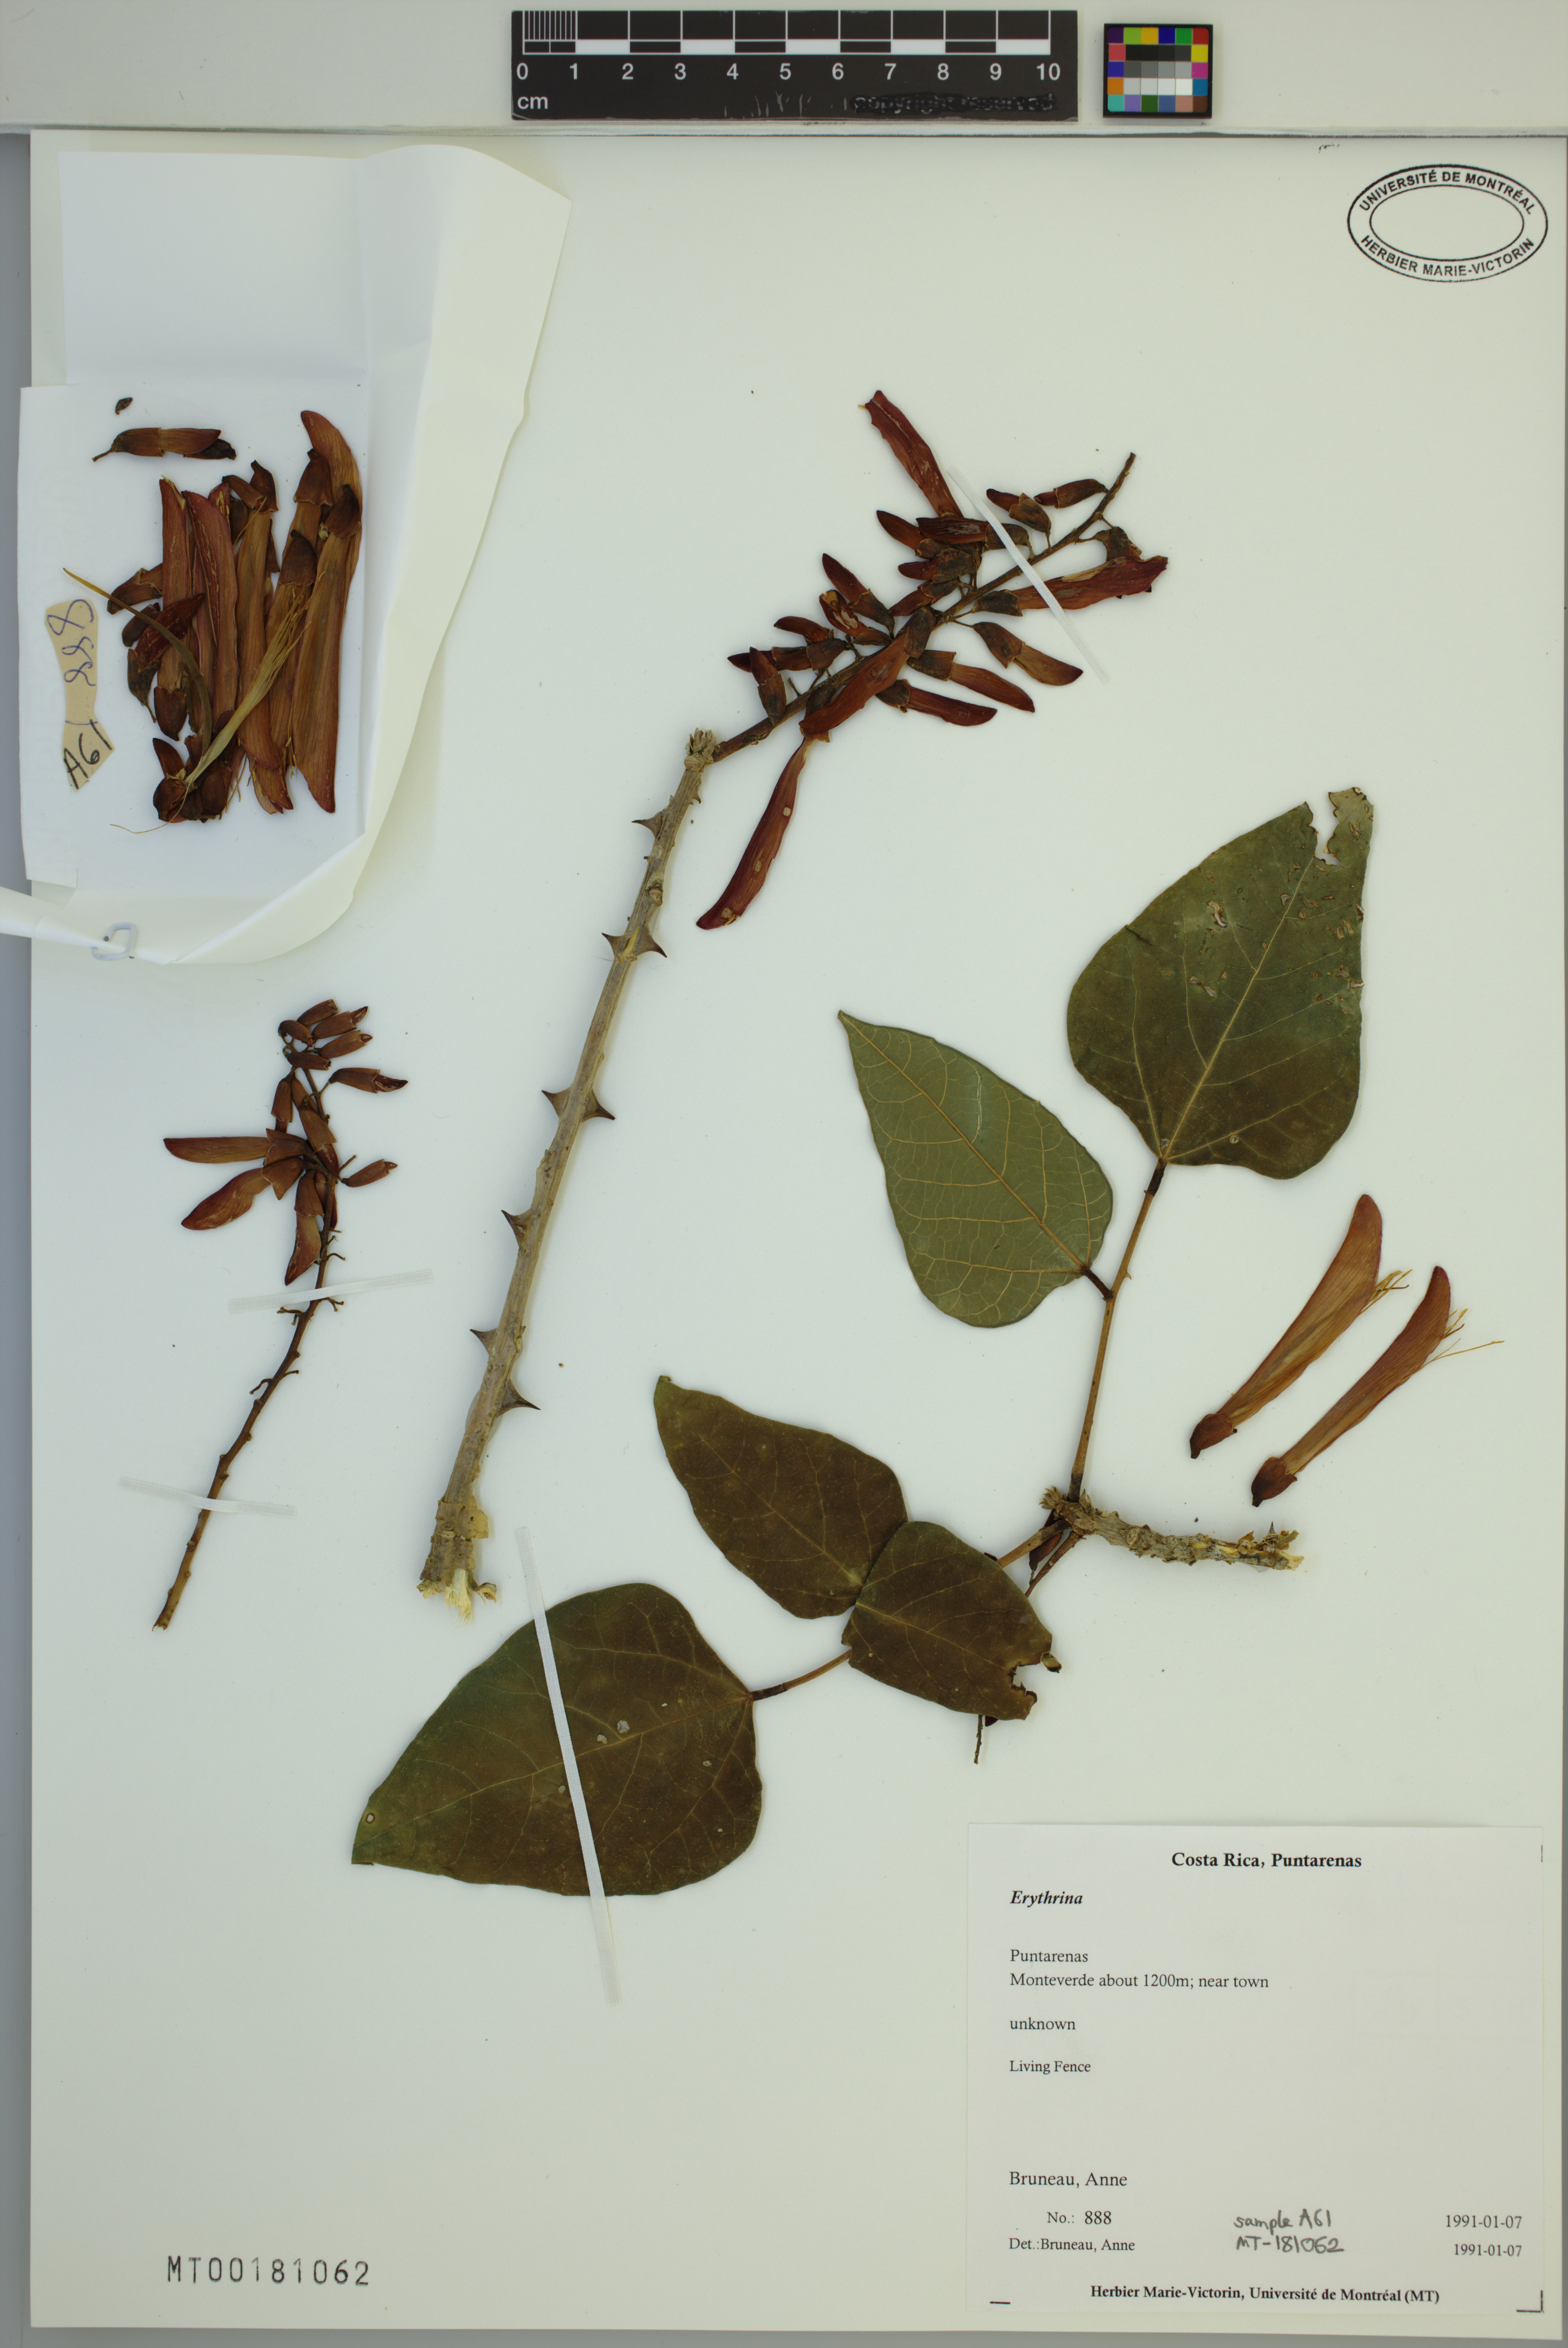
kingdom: Plantae
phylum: Tracheophyta
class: Magnoliopsida
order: Fabales
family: Fabaceae
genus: Erythrina
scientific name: Erythrina
